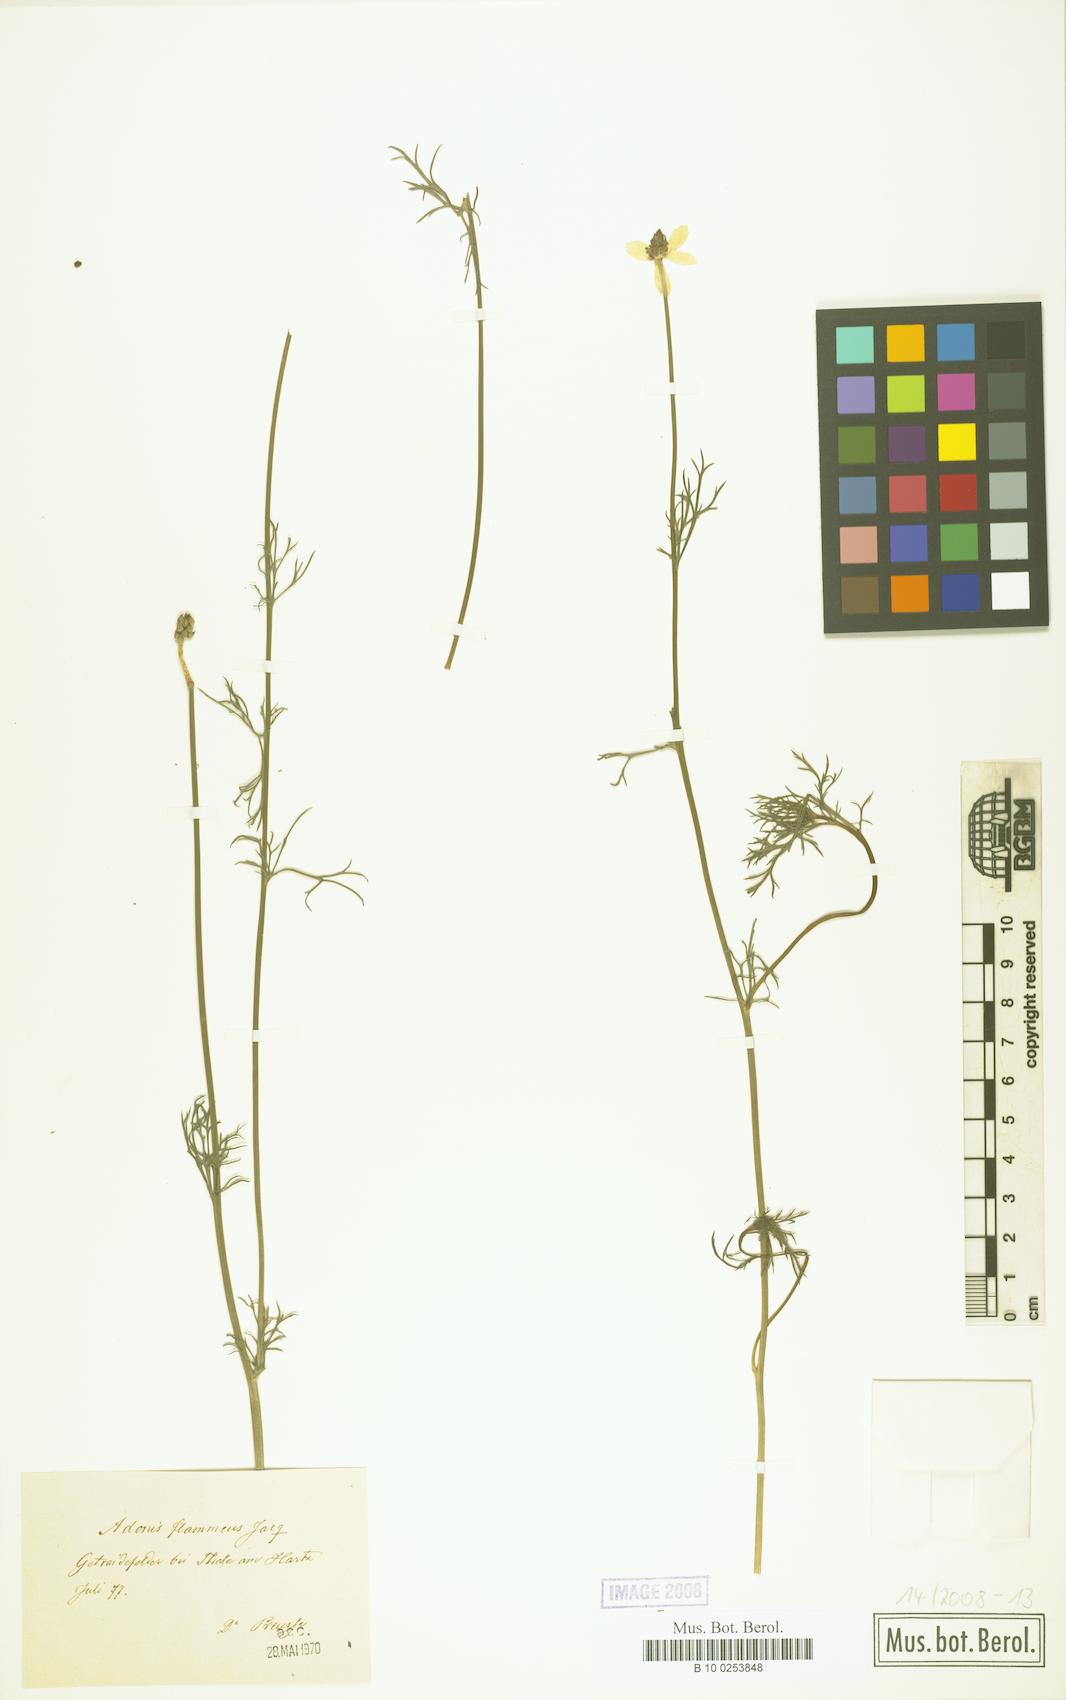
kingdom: Plantae
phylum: Tracheophyta
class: Magnoliopsida
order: Ranunculales
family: Ranunculaceae
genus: Adonis
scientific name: Adonis flammea
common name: Large pheasant's-eye
